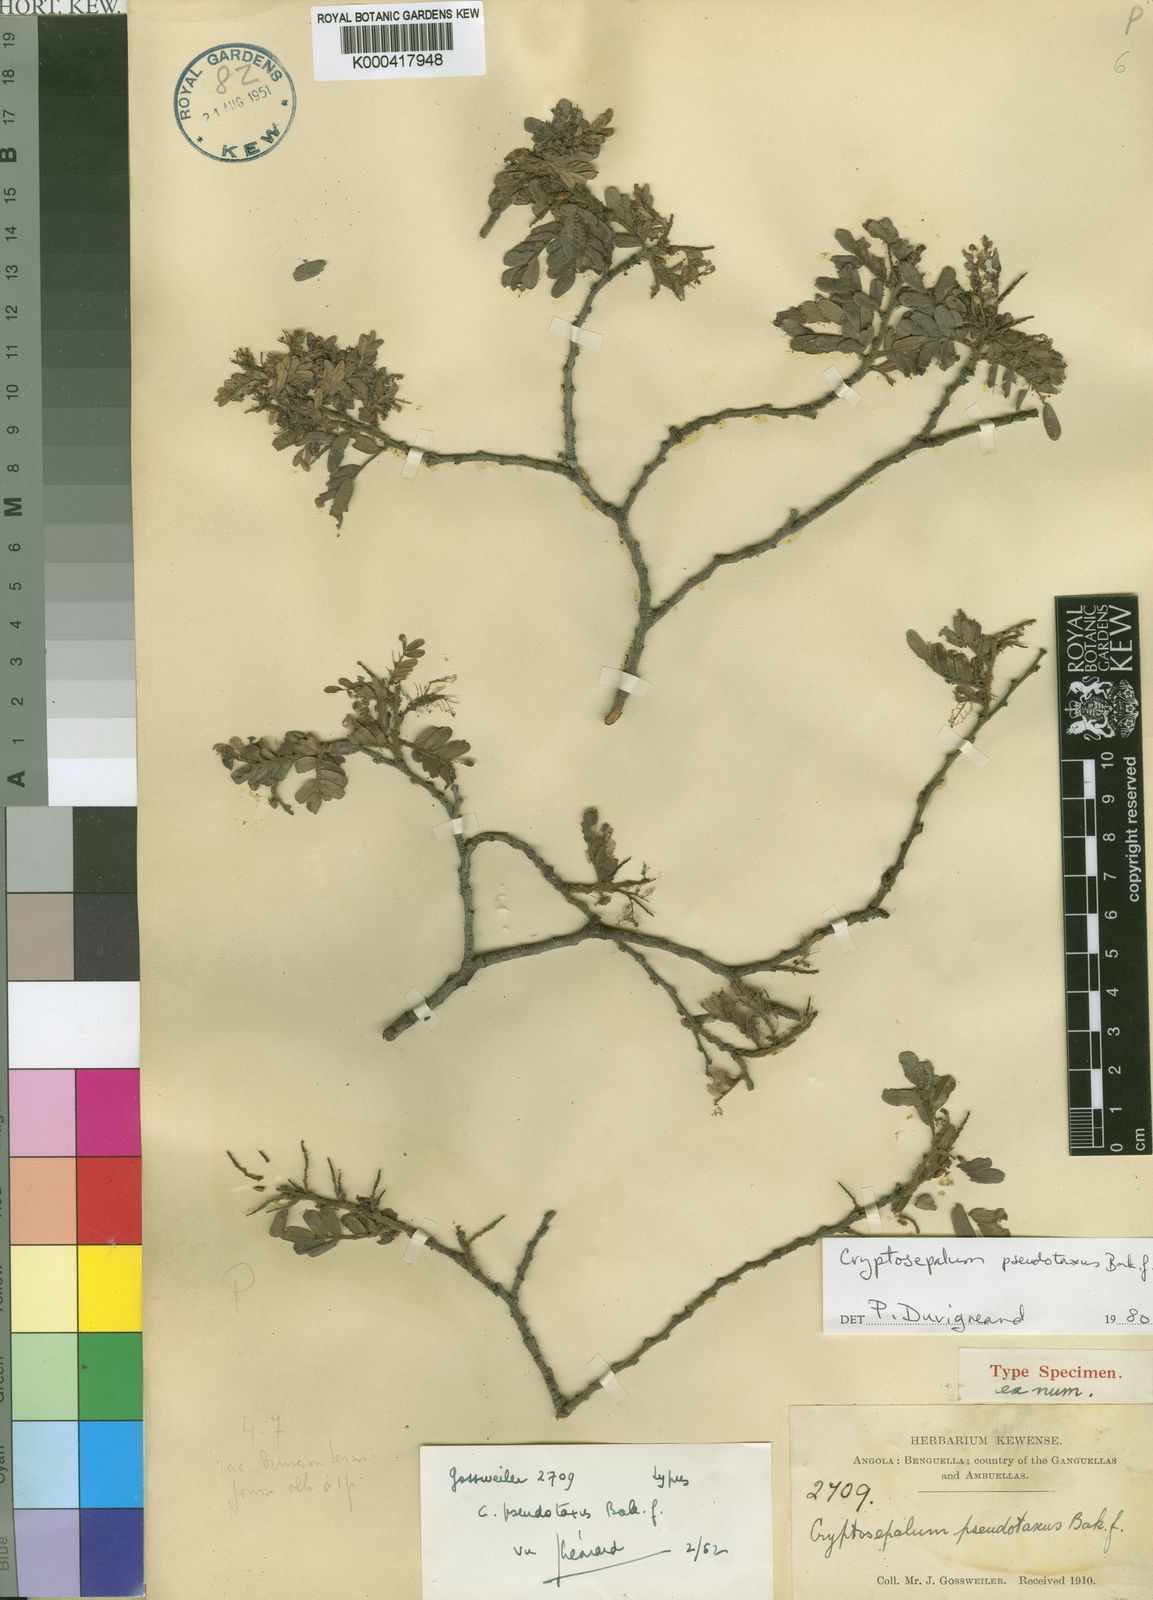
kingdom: Plantae
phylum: Tracheophyta
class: Magnoliopsida
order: Fabales
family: Fabaceae
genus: Cryptosepalum
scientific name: Cryptosepalum exfoliatum
